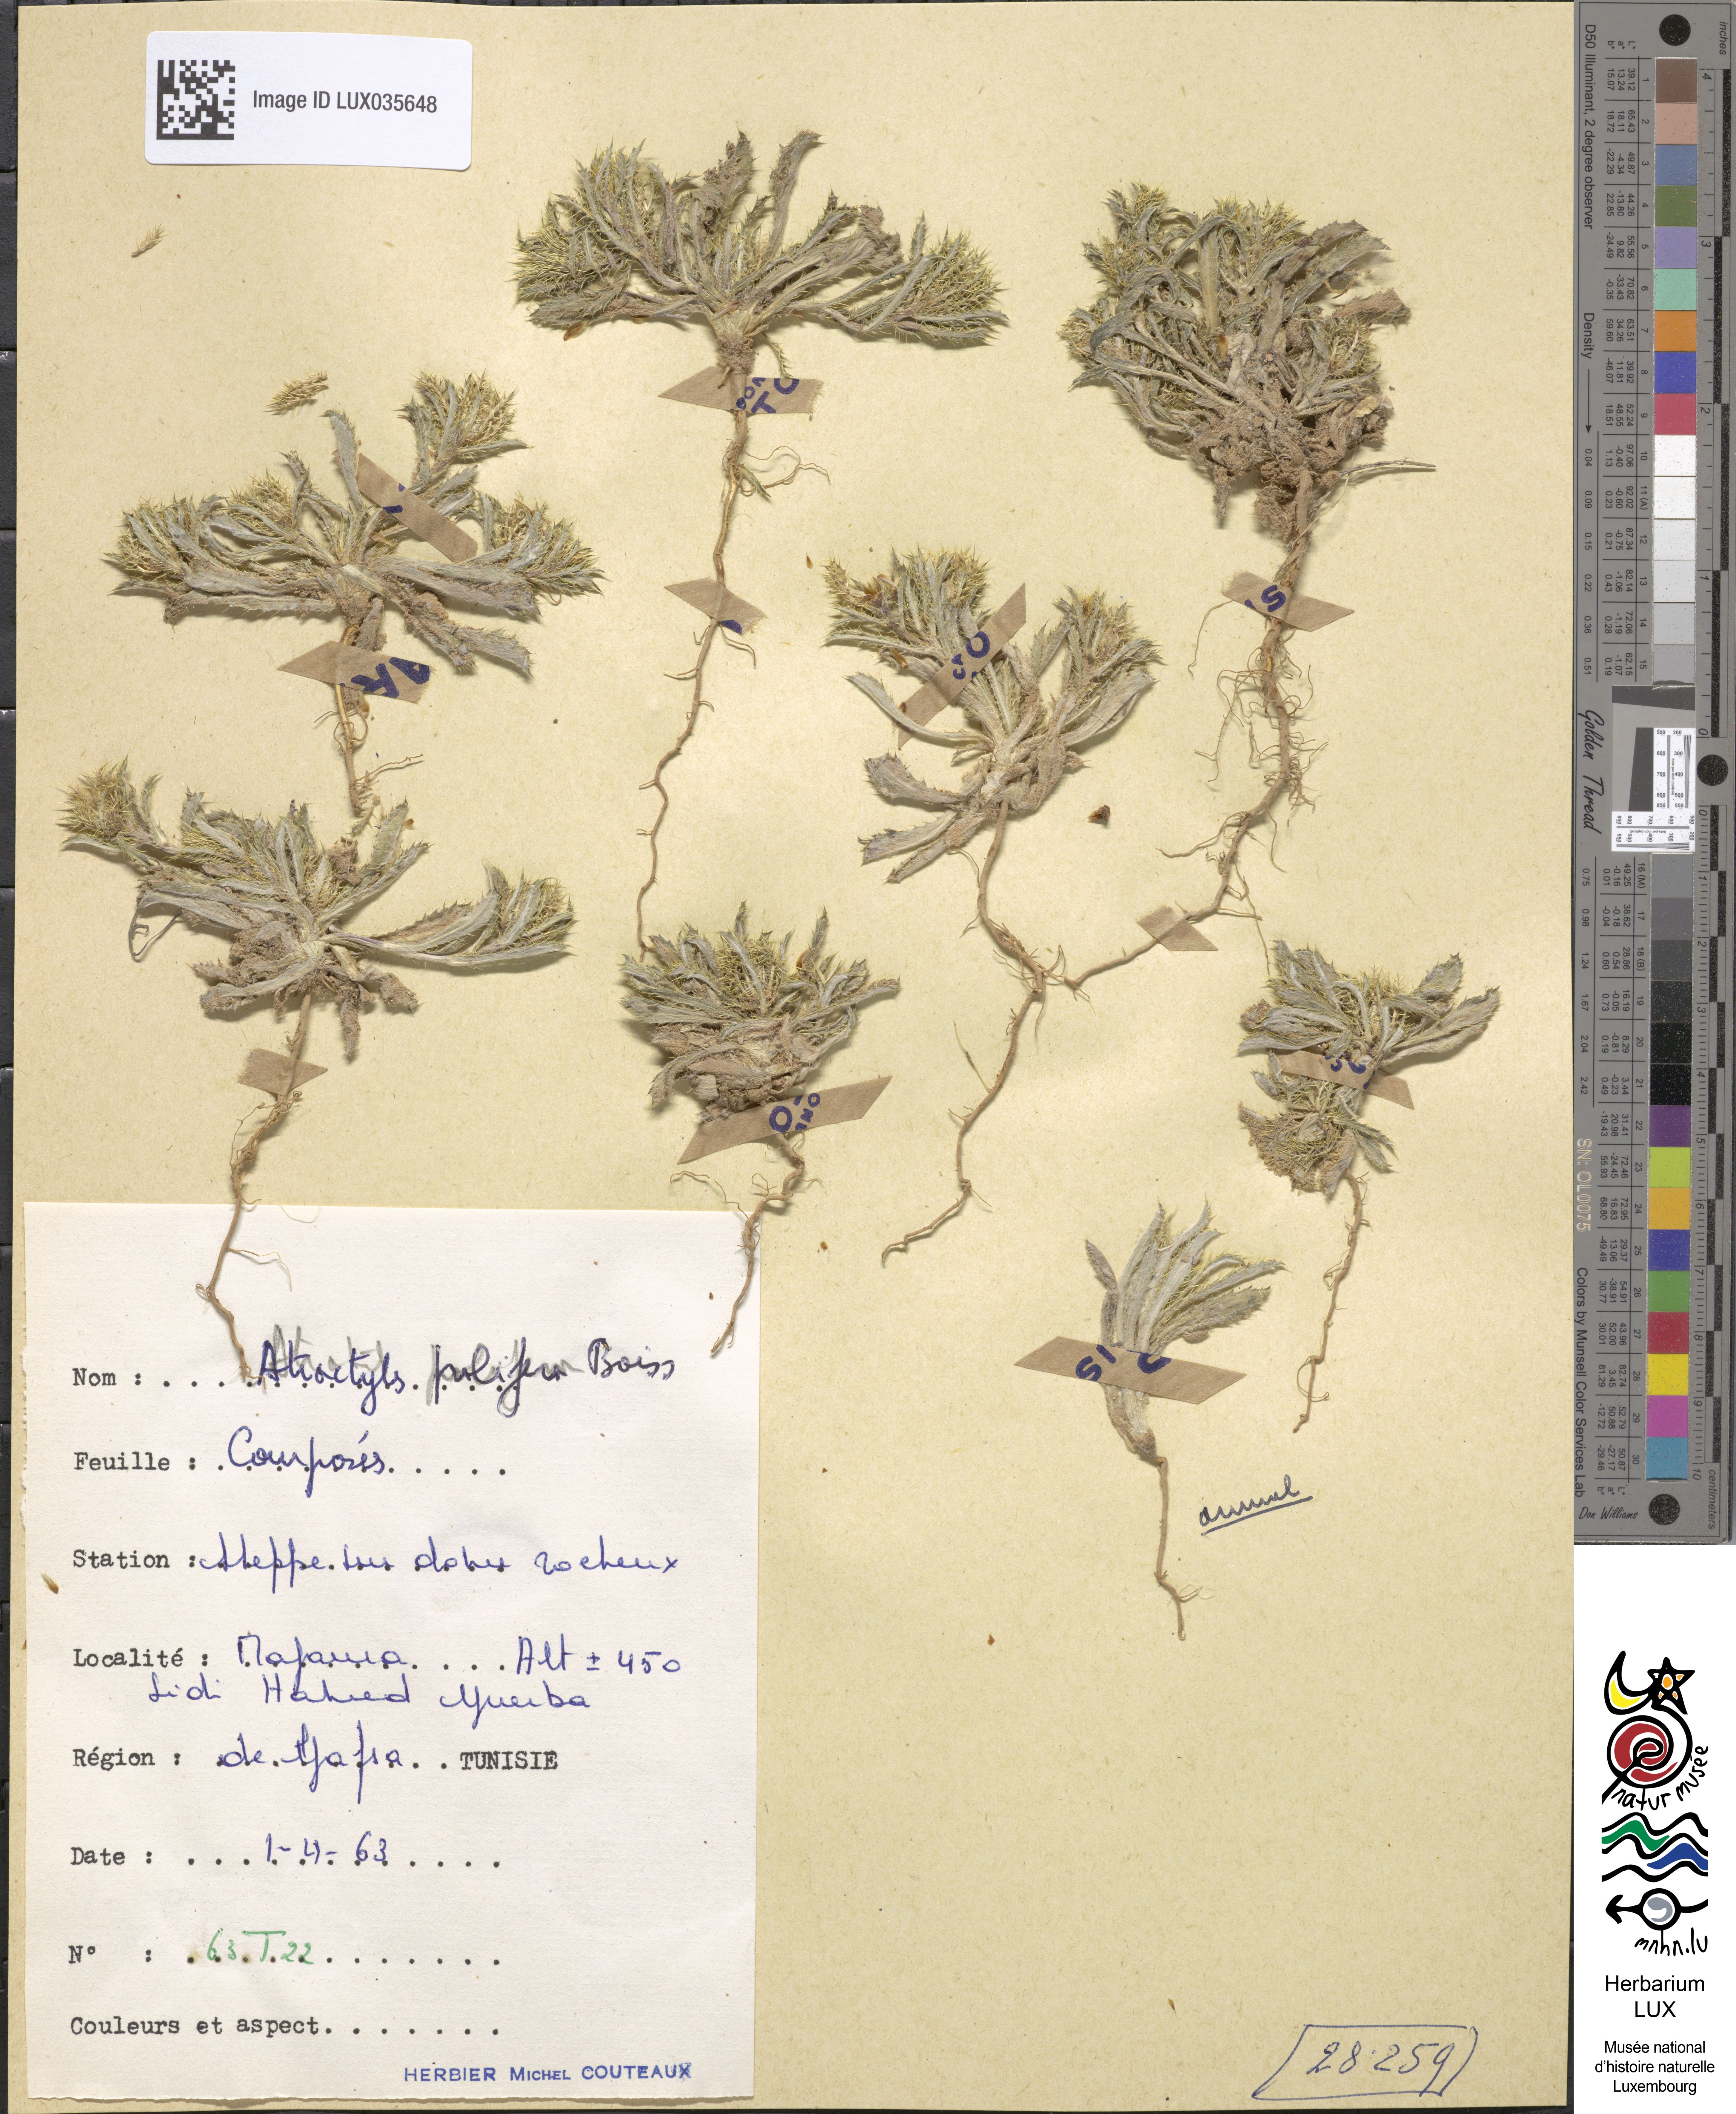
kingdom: Plantae
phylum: Tracheophyta
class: Magnoliopsida
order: Asterales
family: Asteraceae
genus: Atractylis
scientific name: Atractylis prolifera
